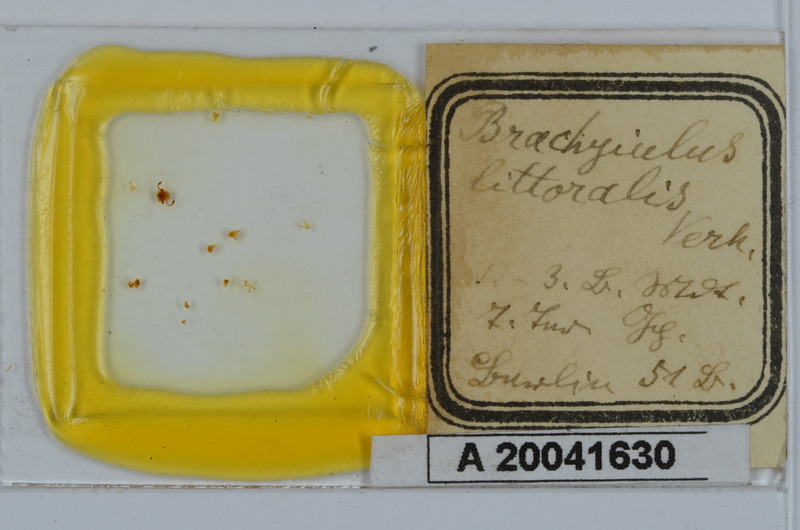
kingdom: Animalia
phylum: Arthropoda
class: Diplopoda
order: Julida
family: Julidae
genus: Brachyiulus
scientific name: Brachyiulus pusillus
